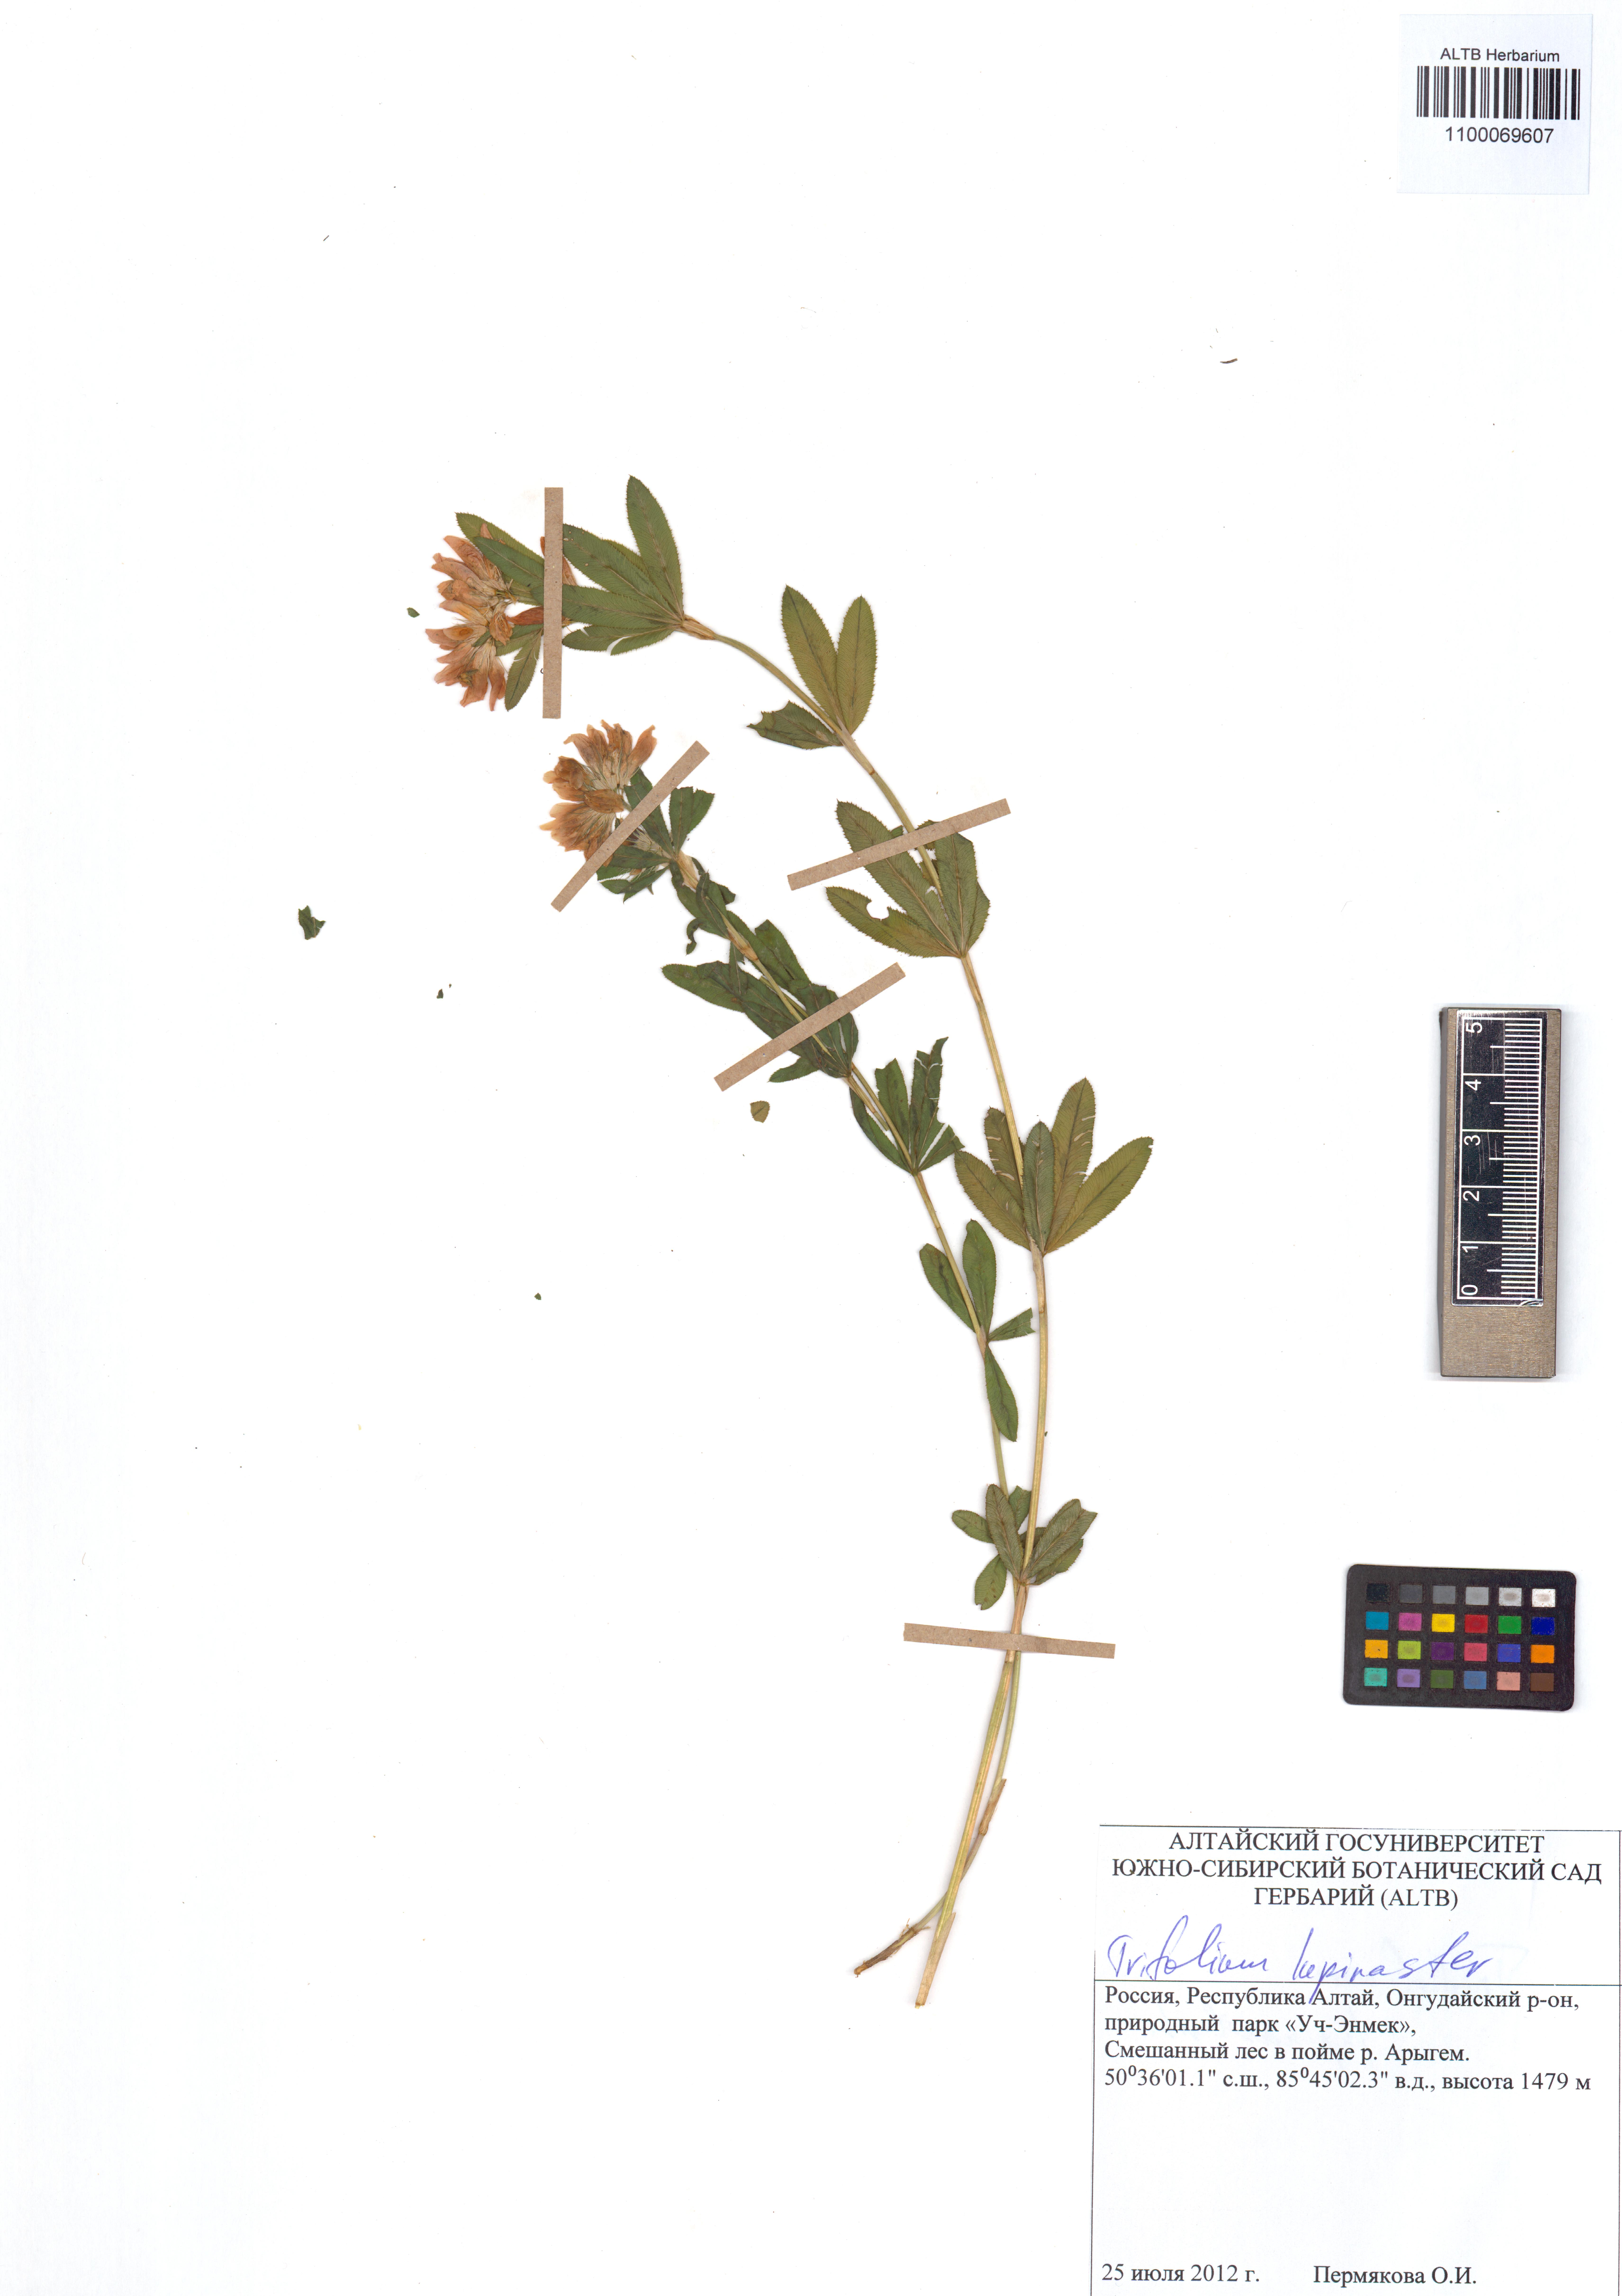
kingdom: Plantae
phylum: Tracheophyta
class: Magnoliopsida
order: Fabales
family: Fabaceae
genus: Trifolium
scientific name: Trifolium lupinaster
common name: Lupine clover
